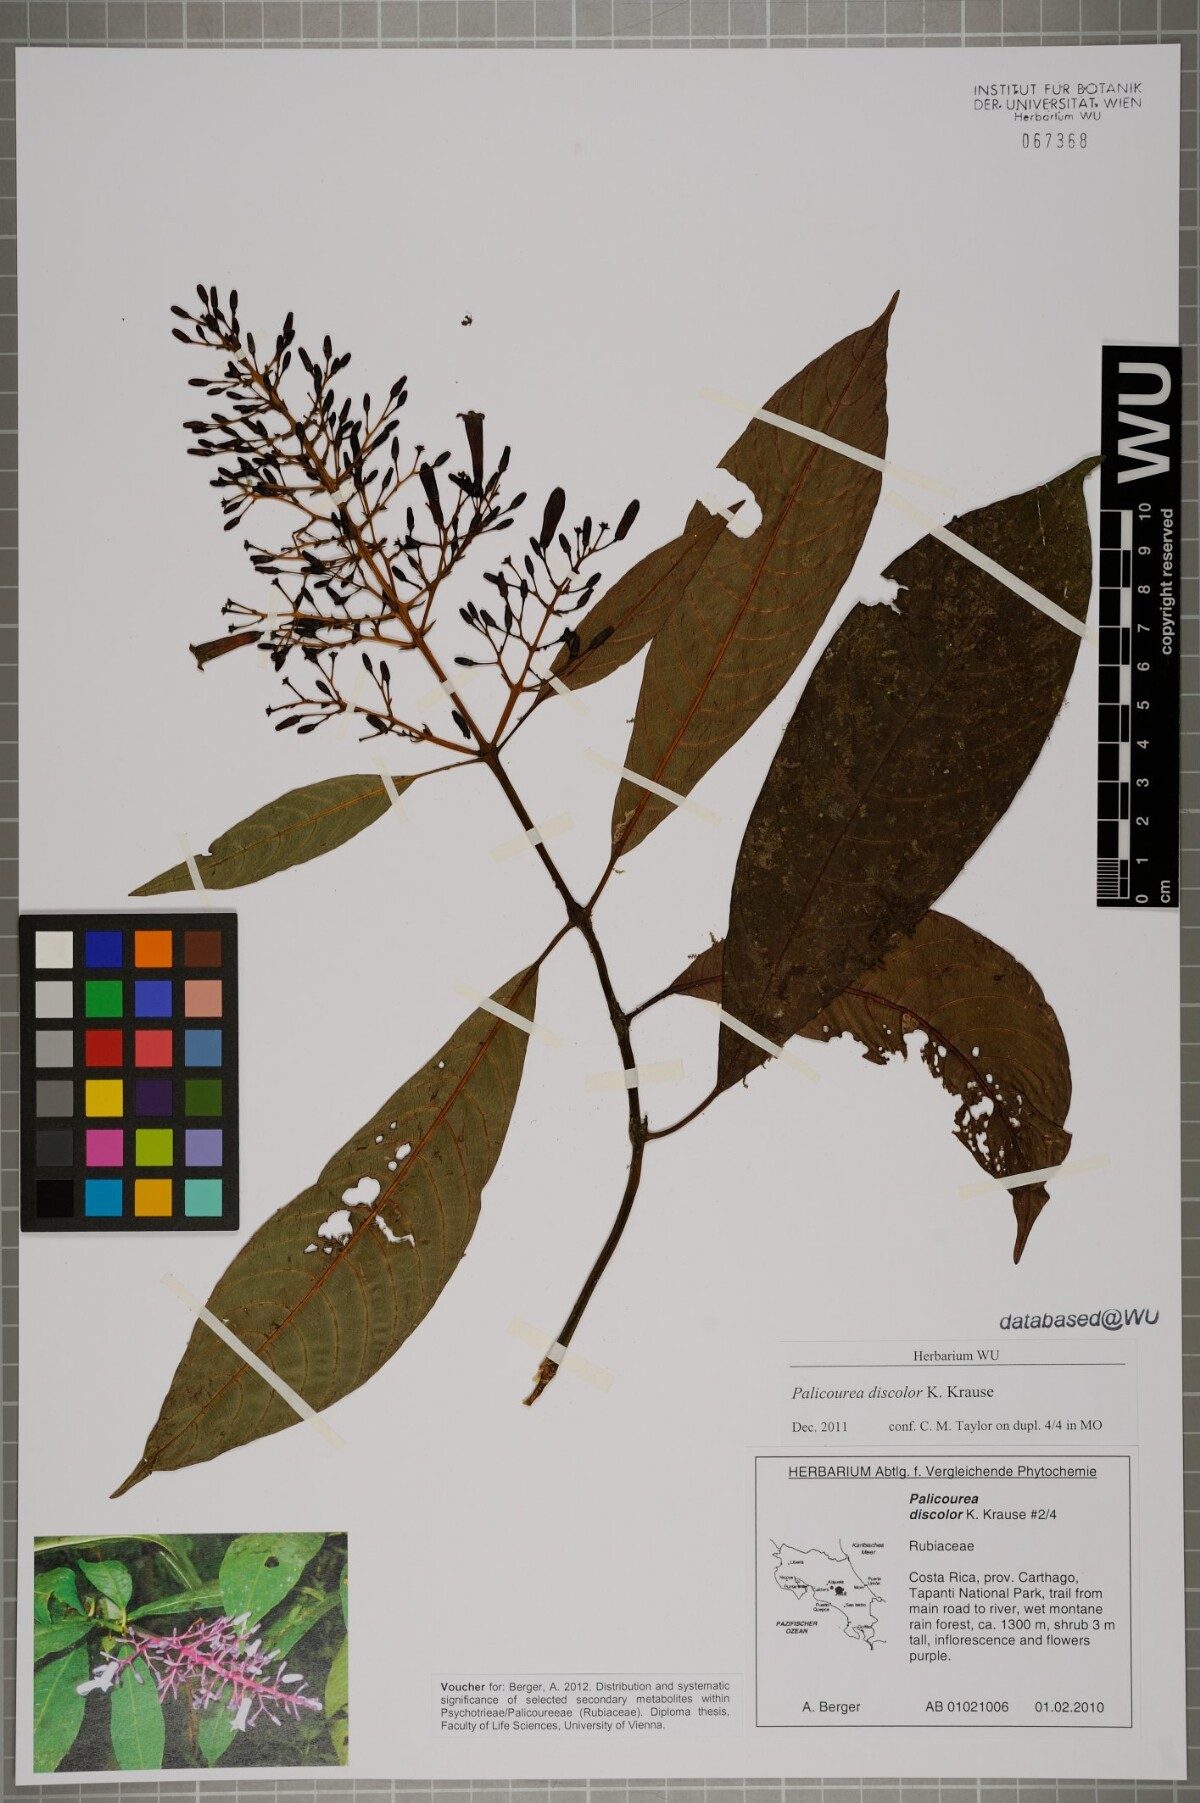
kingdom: Plantae
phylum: Tracheophyta
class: Magnoliopsida
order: Gentianales
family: Rubiaceae
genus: Palicourea
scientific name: Palicourea macrosepala
